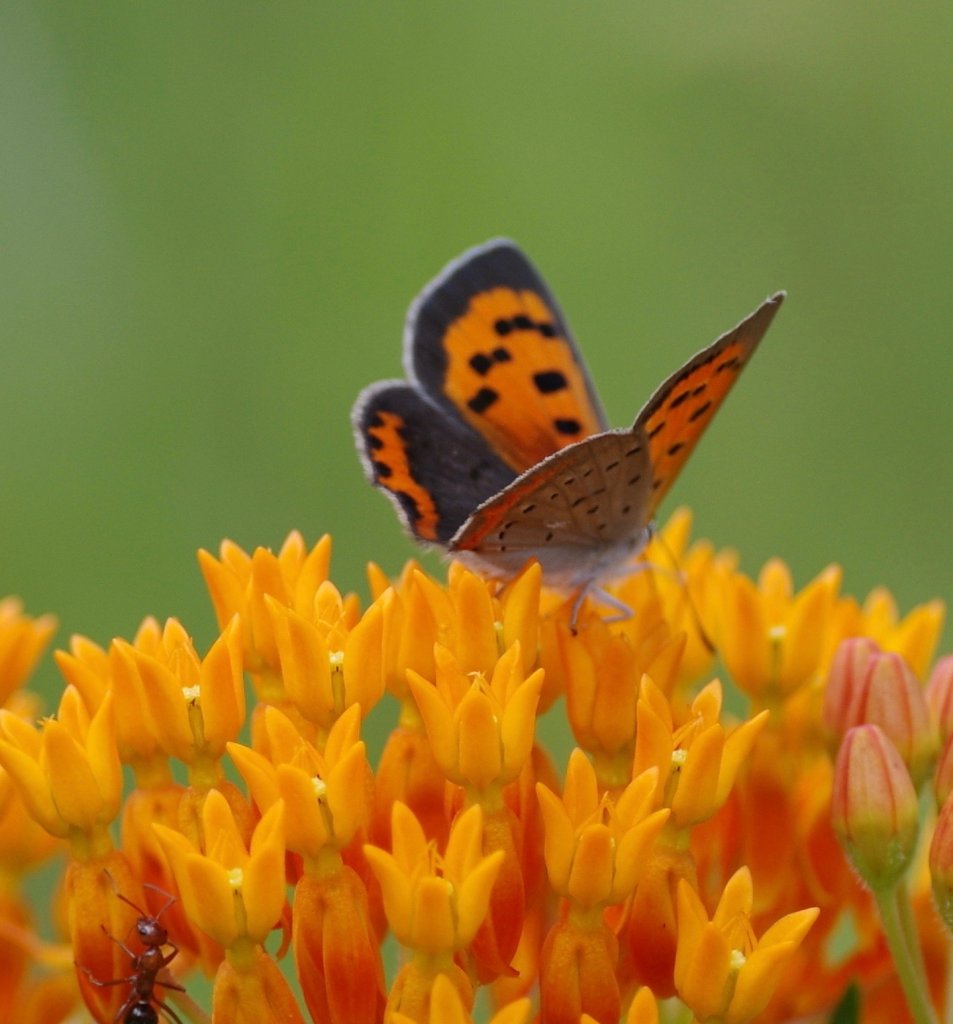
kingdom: Animalia
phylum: Arthropoda
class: Insecta
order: Lepidoptera
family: Lycaenidae
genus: Lycaena
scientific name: Lycaena phlaeas
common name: American Copper
